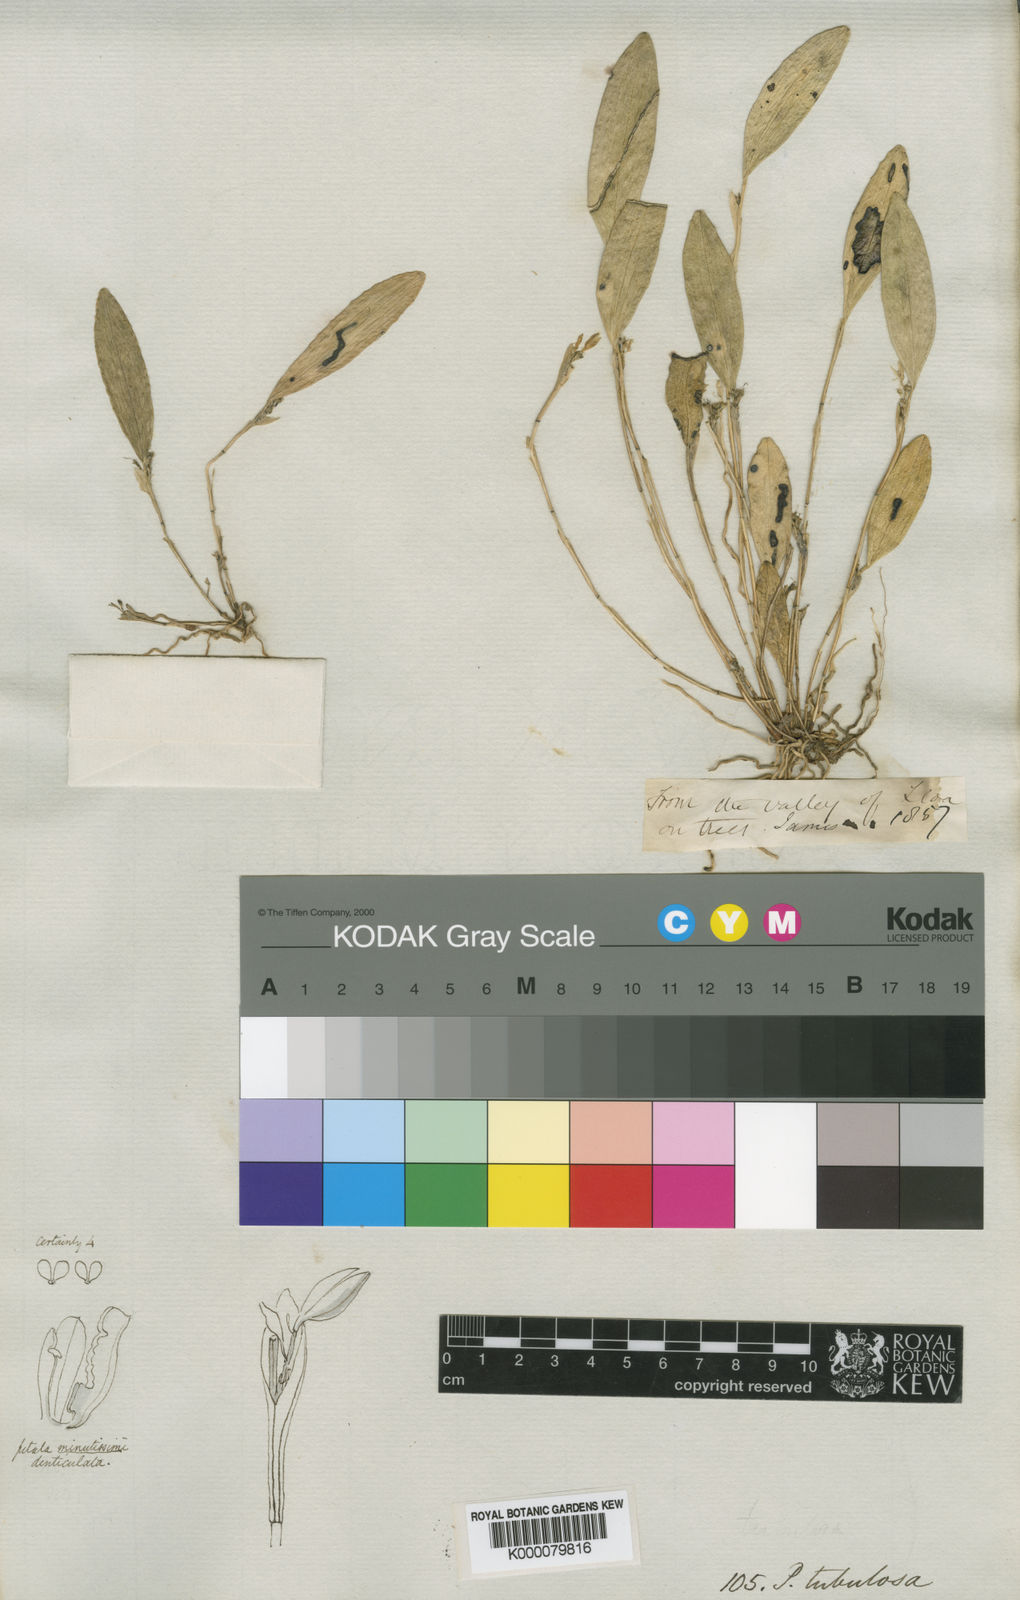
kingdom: Plantae
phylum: Tracheophyta
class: Liliopsida
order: Asparagales
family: Orchidaceae
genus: Pleurothallopsis
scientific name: Pleurothallopsis tubulosa
